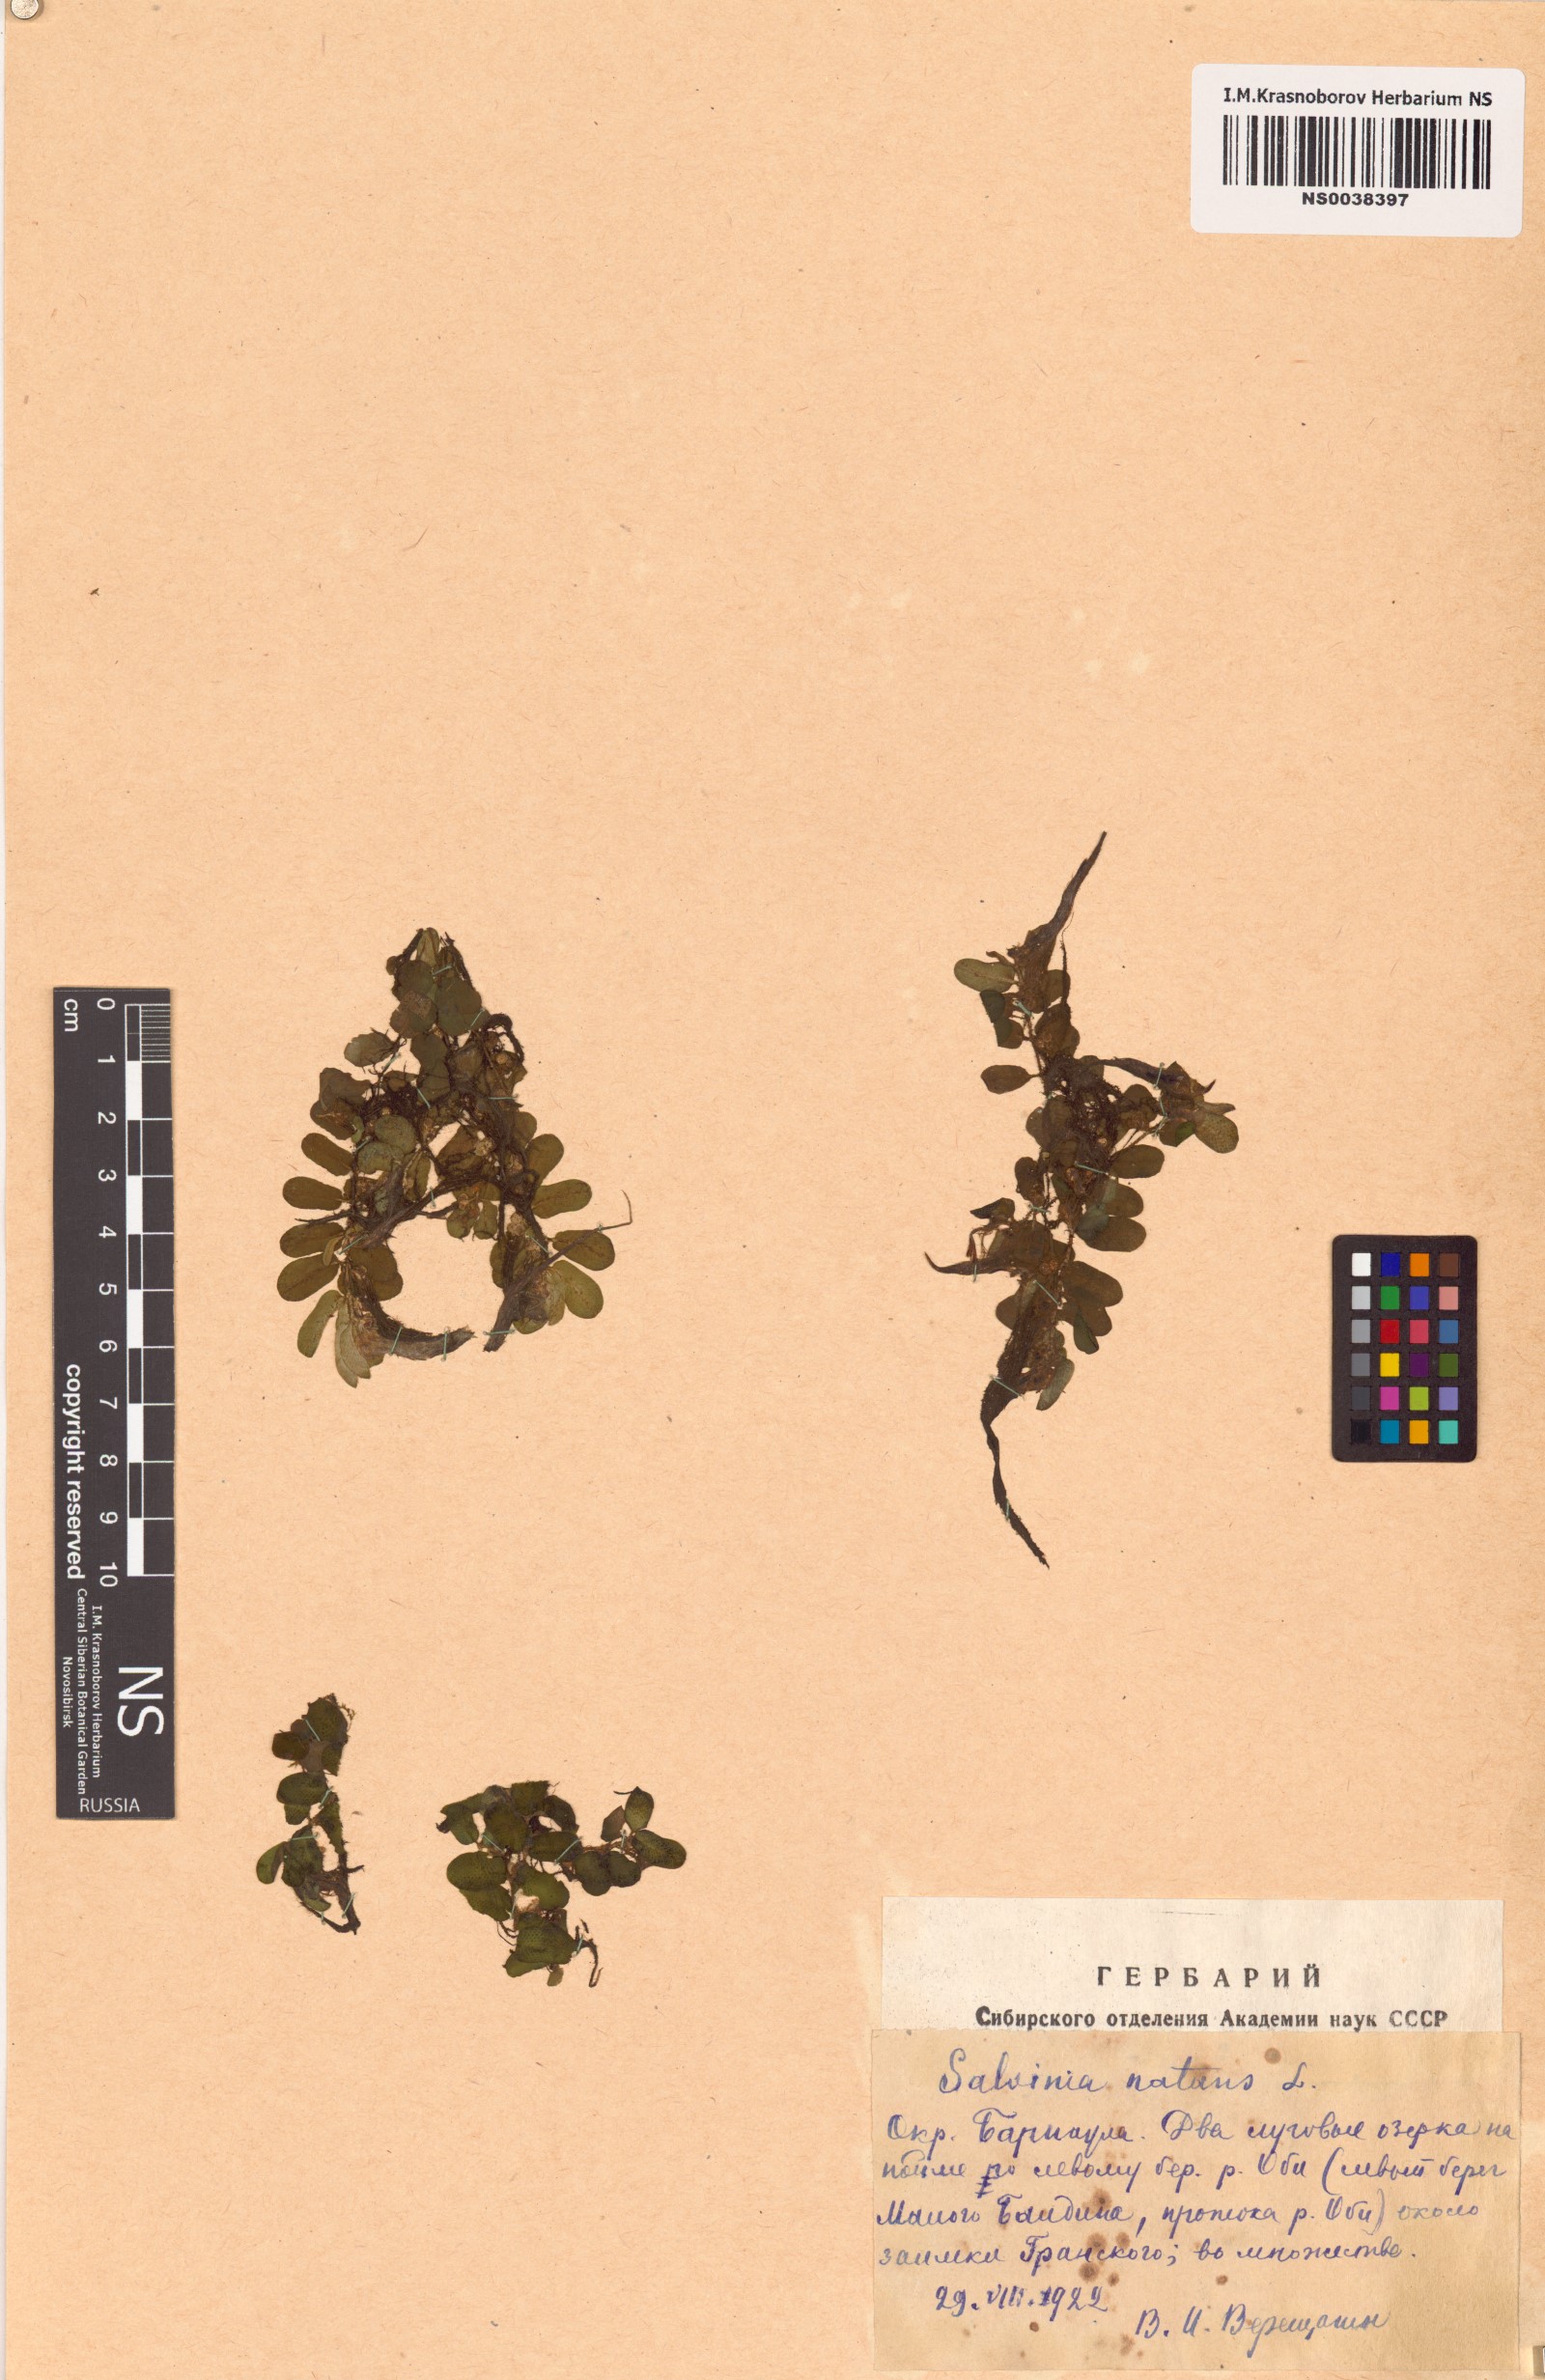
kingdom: Plantae
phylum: Tracheophyta
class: Polypodiopsida
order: Salviniales
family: Salviniaceae
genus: Salvinia
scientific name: Salvinia natans
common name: Floating fern
